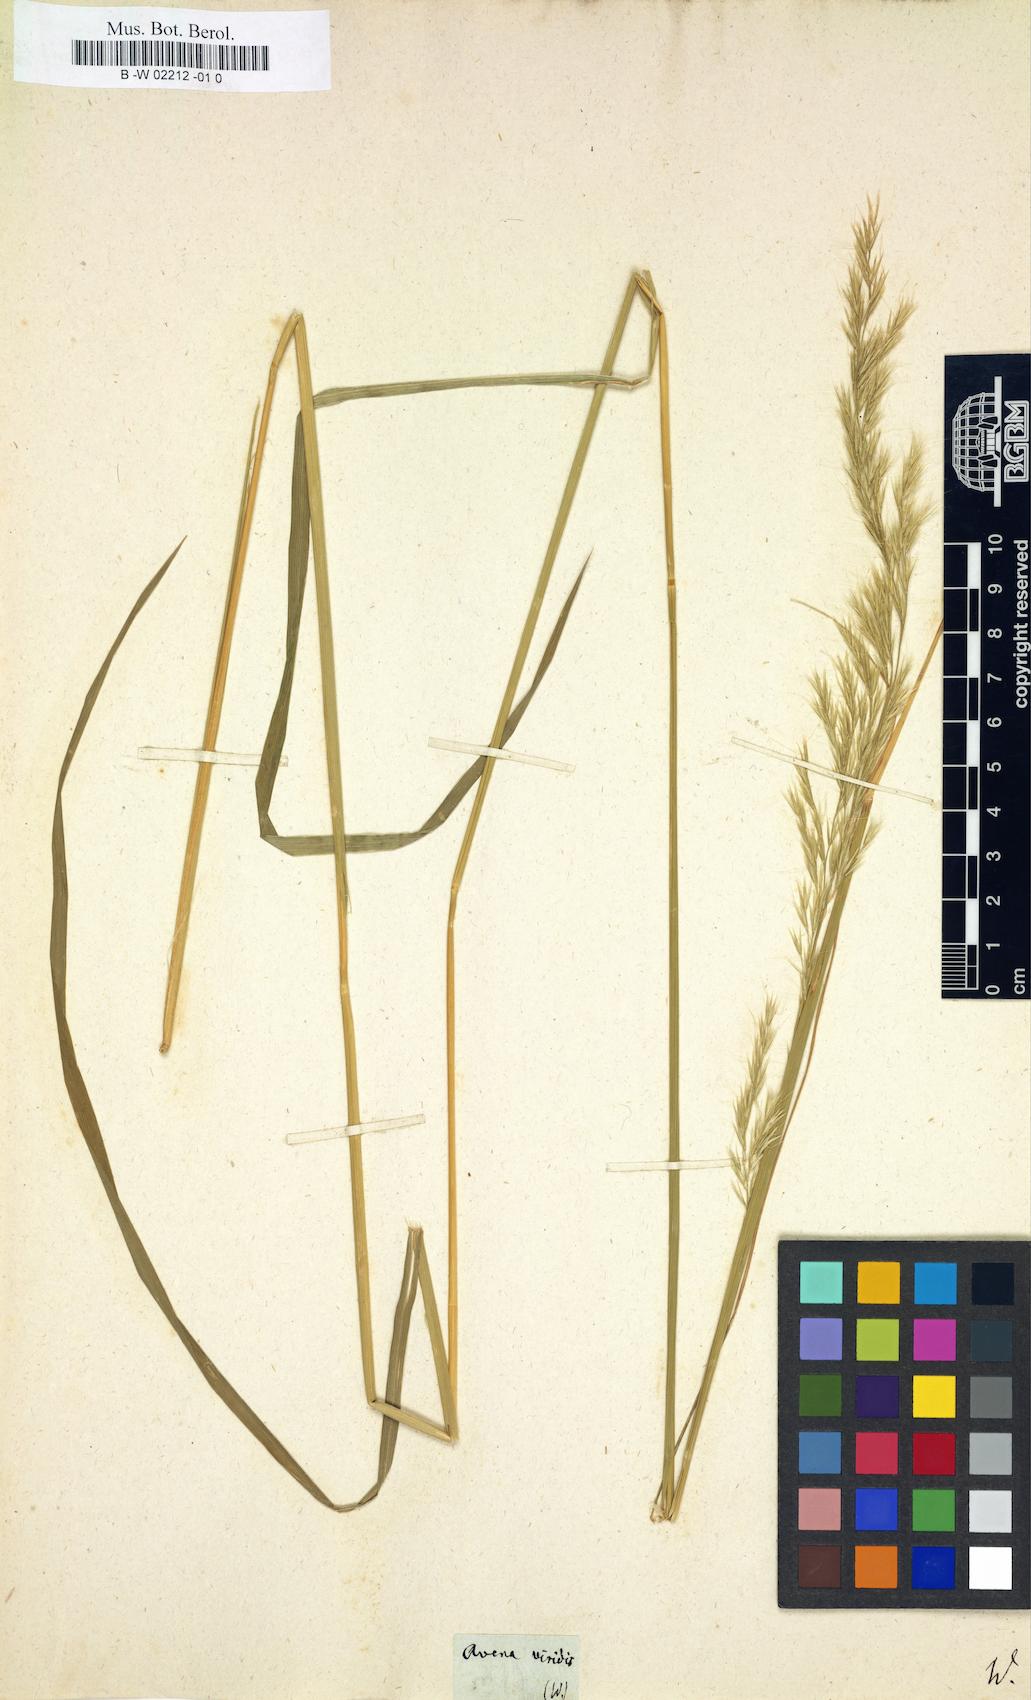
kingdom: Plantae
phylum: Tracheophyta
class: Liliopsida
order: Poales
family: Poaceae
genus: Peyritschia
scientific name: Peyritschia viridis
